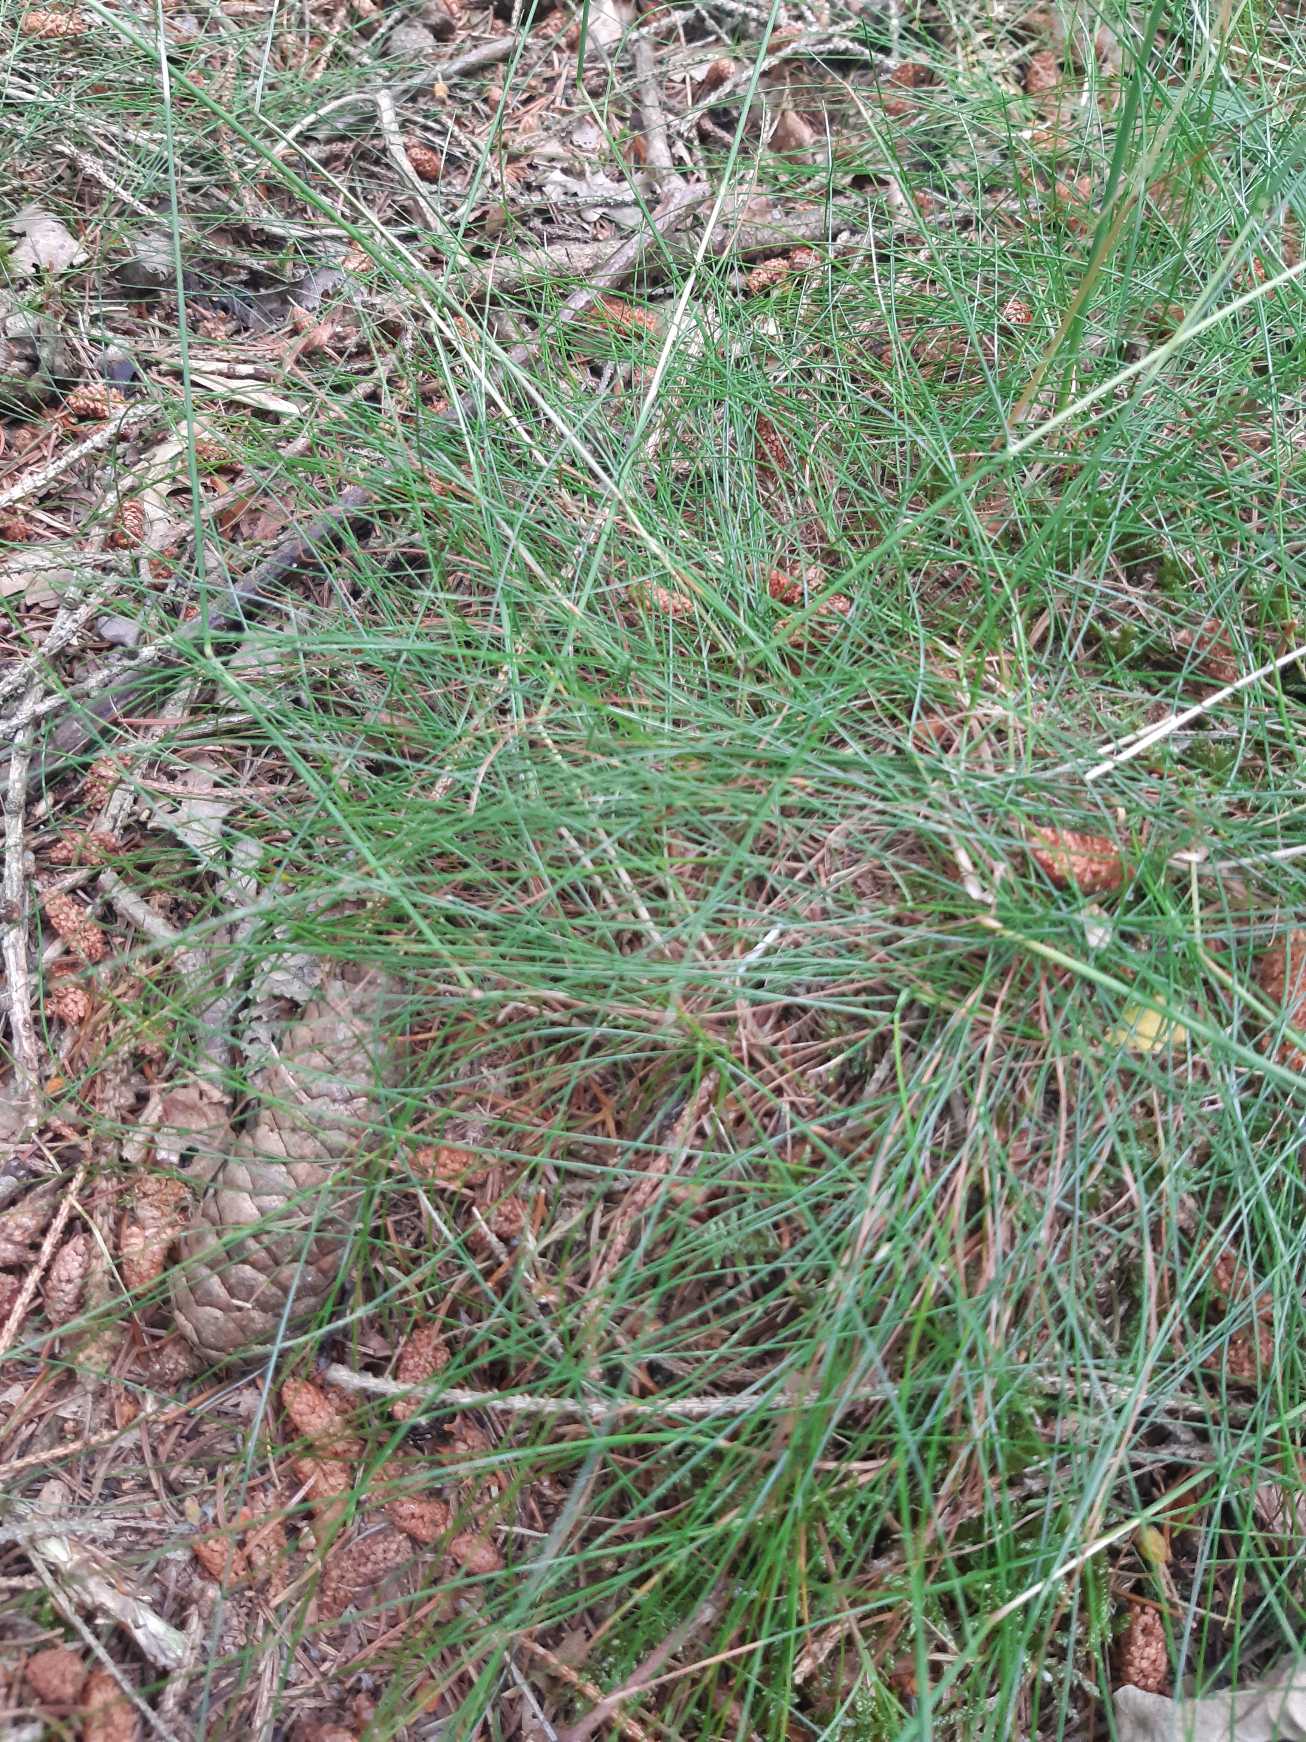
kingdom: Plantae
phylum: Tracheophyta
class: Liliopsida
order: Poales
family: Poaceae
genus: Avenella
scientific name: Avenella flexuosa
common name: Bølget bunke
